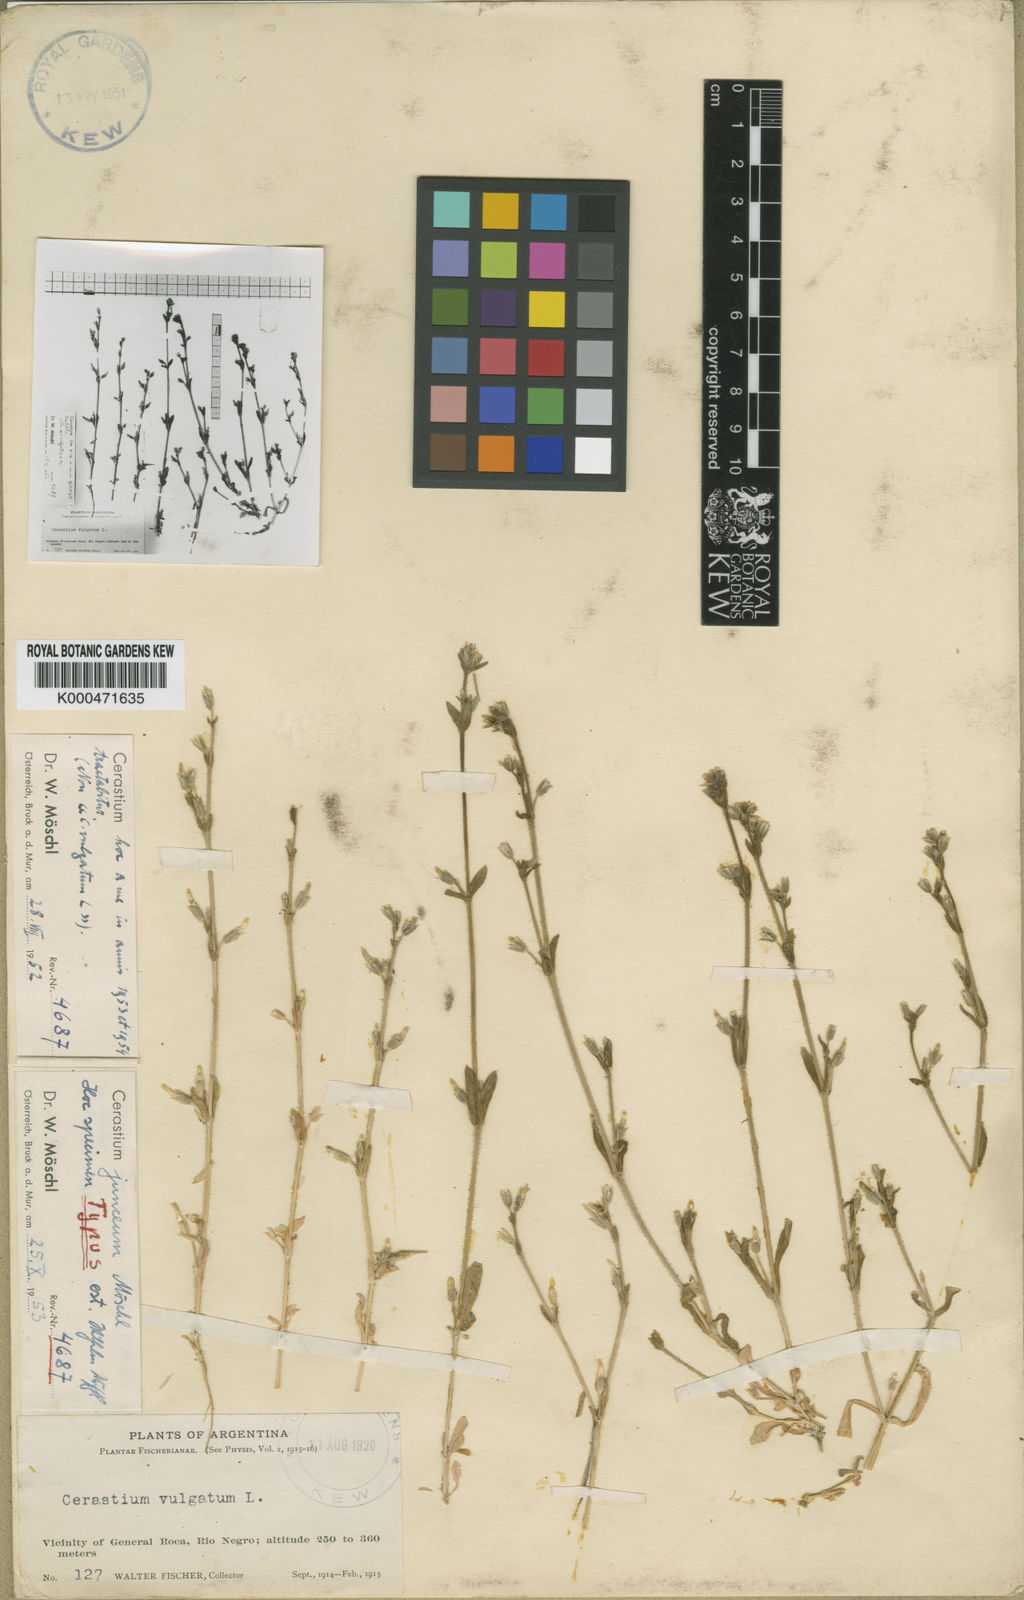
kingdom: Plantae
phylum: Tracheophyta
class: Magnoliopsida
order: Caryophyllales
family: Caryophyllaceae
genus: Cerastium
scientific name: Cerastium
